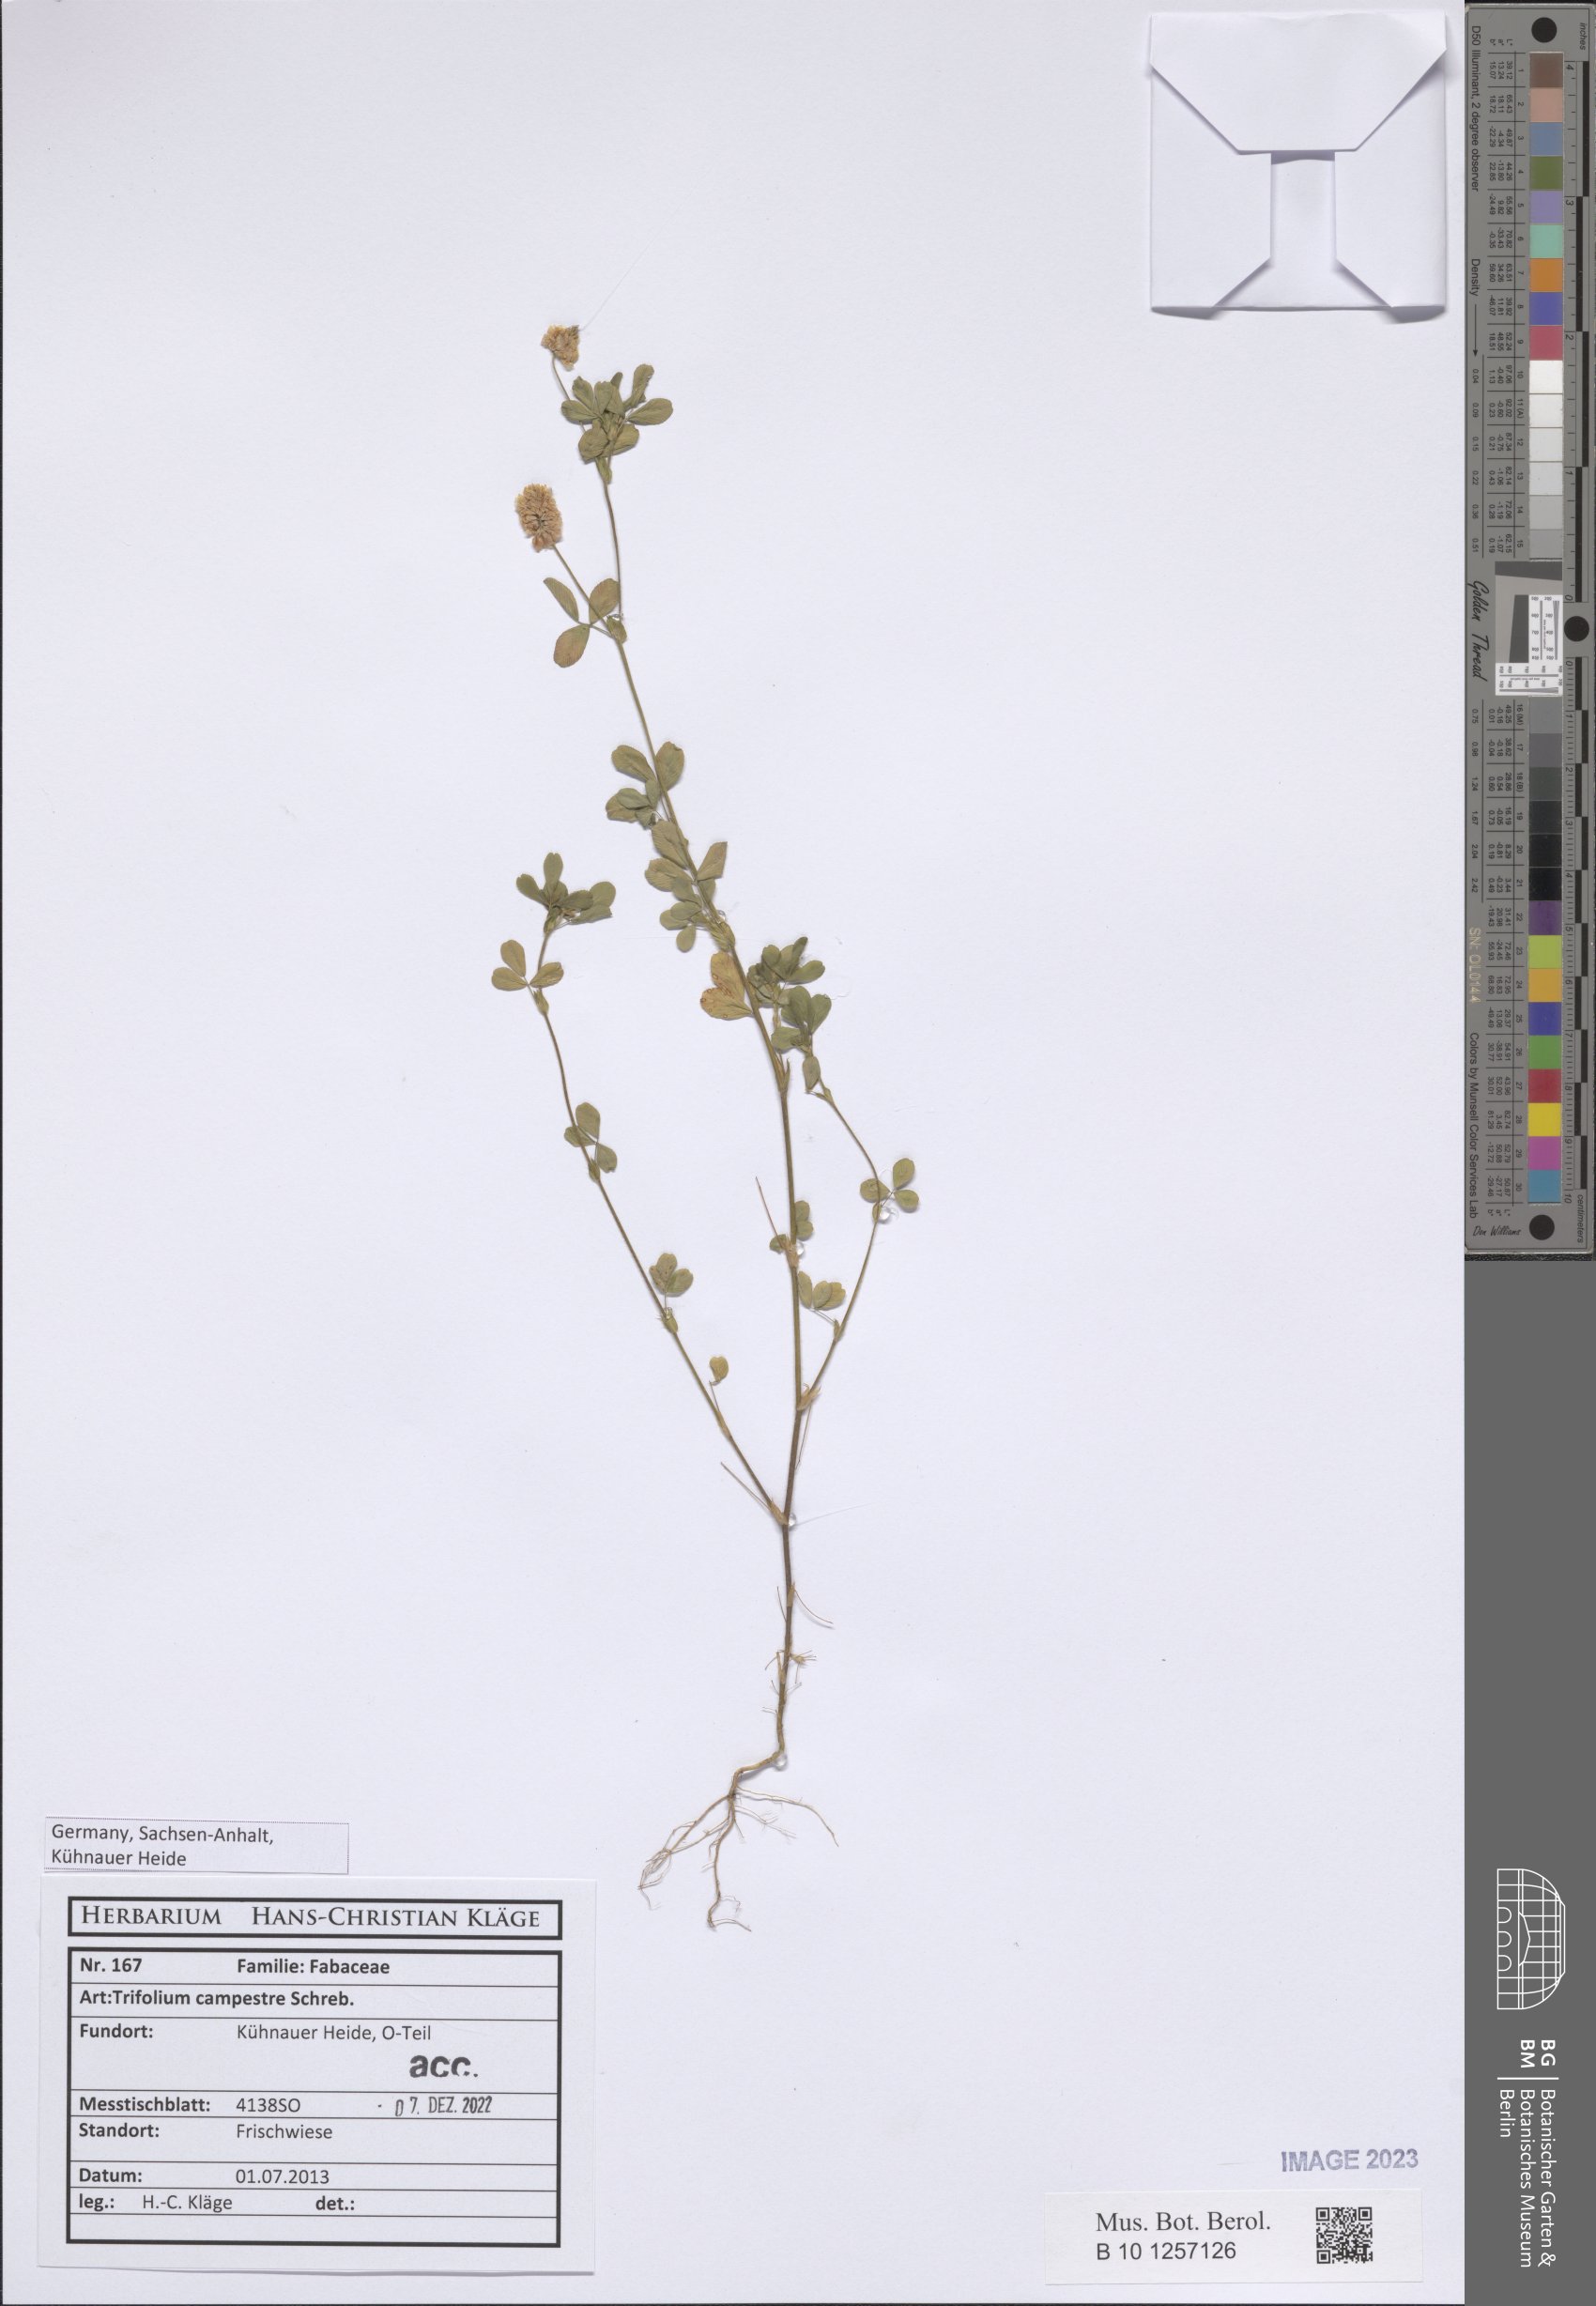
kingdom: Plantae
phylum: Tracheophyta
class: Magnoliopsida
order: Fabales
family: Fabaceae
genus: Trifolium
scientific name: Trifolium campestre
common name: Field clover
